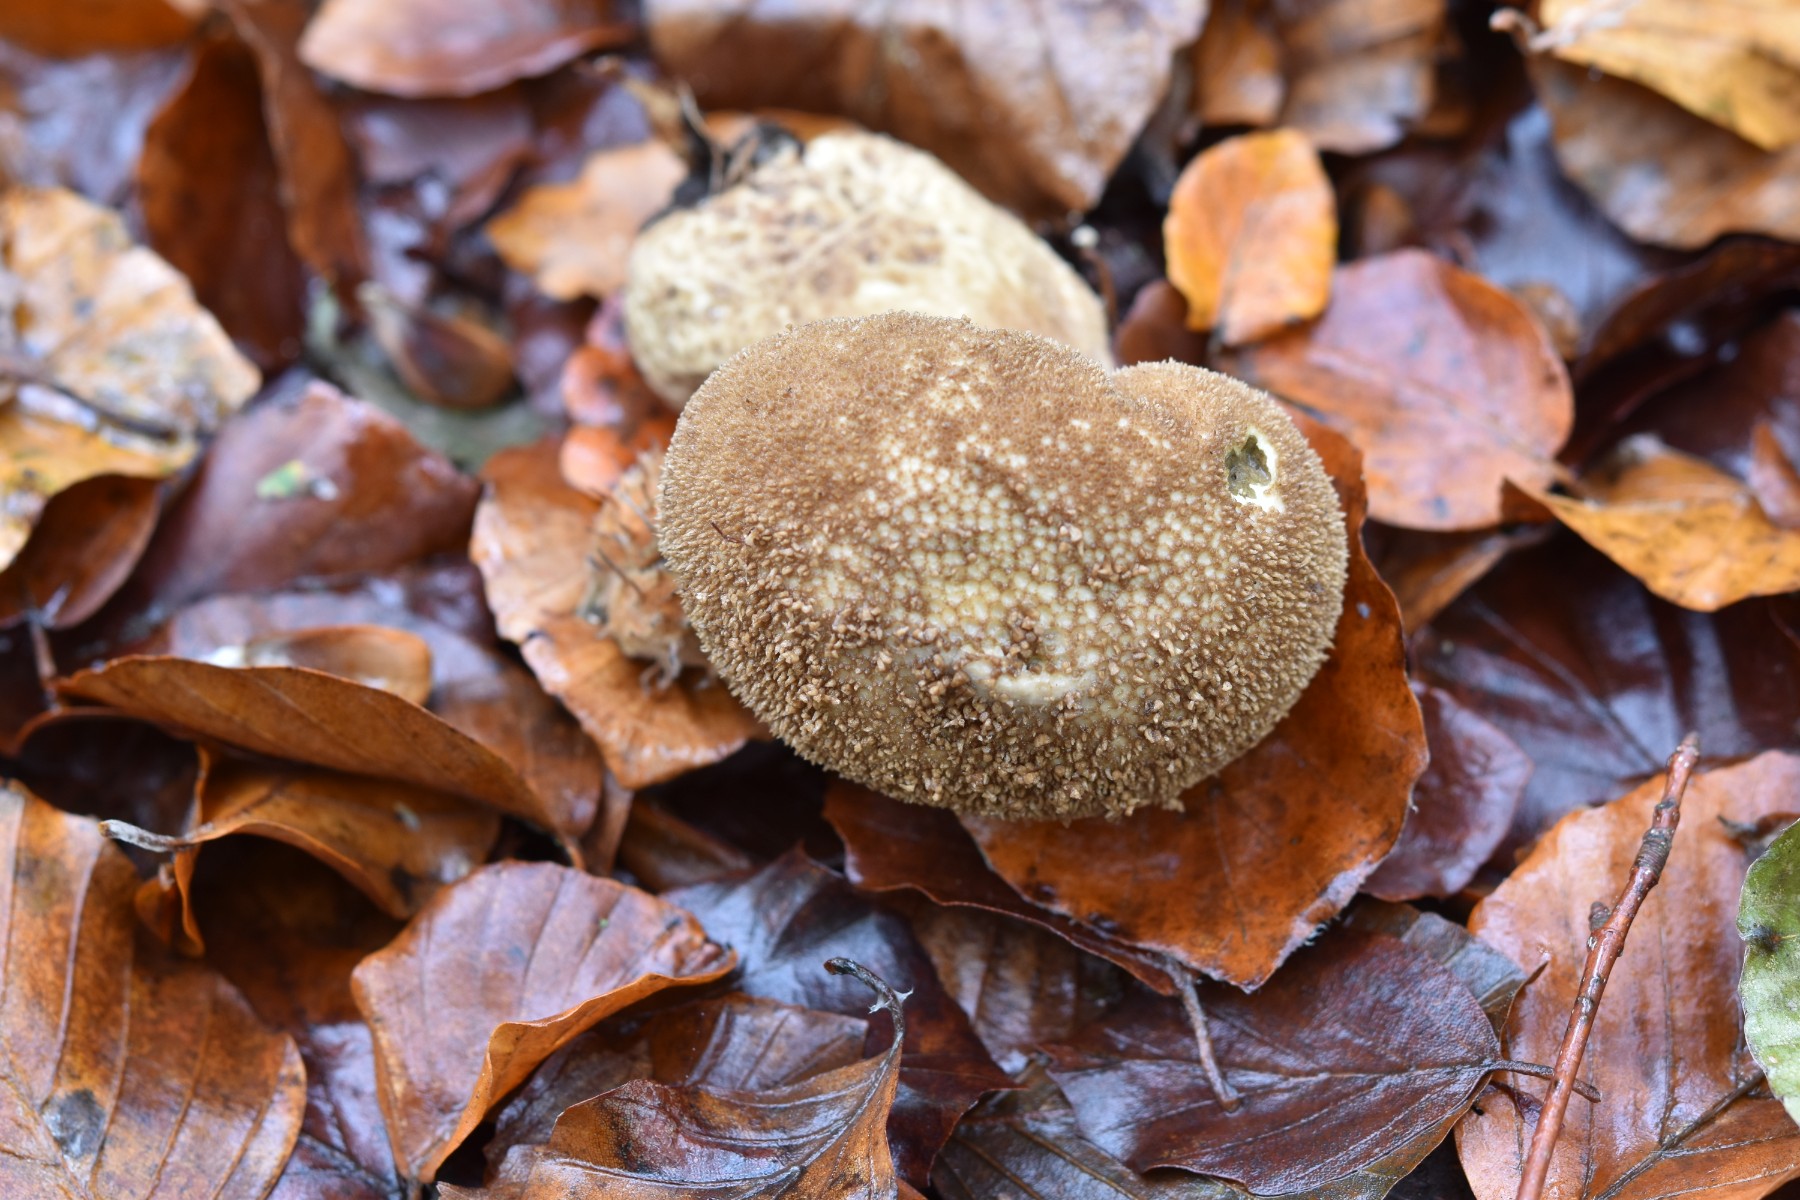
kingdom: Fungi
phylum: Basidiomycota
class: Agaricomycetes
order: Agaricales
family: Lycoperdaceae
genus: Lycoperdon
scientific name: Lycoperdon nigrescens
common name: sortagtig støvbold
